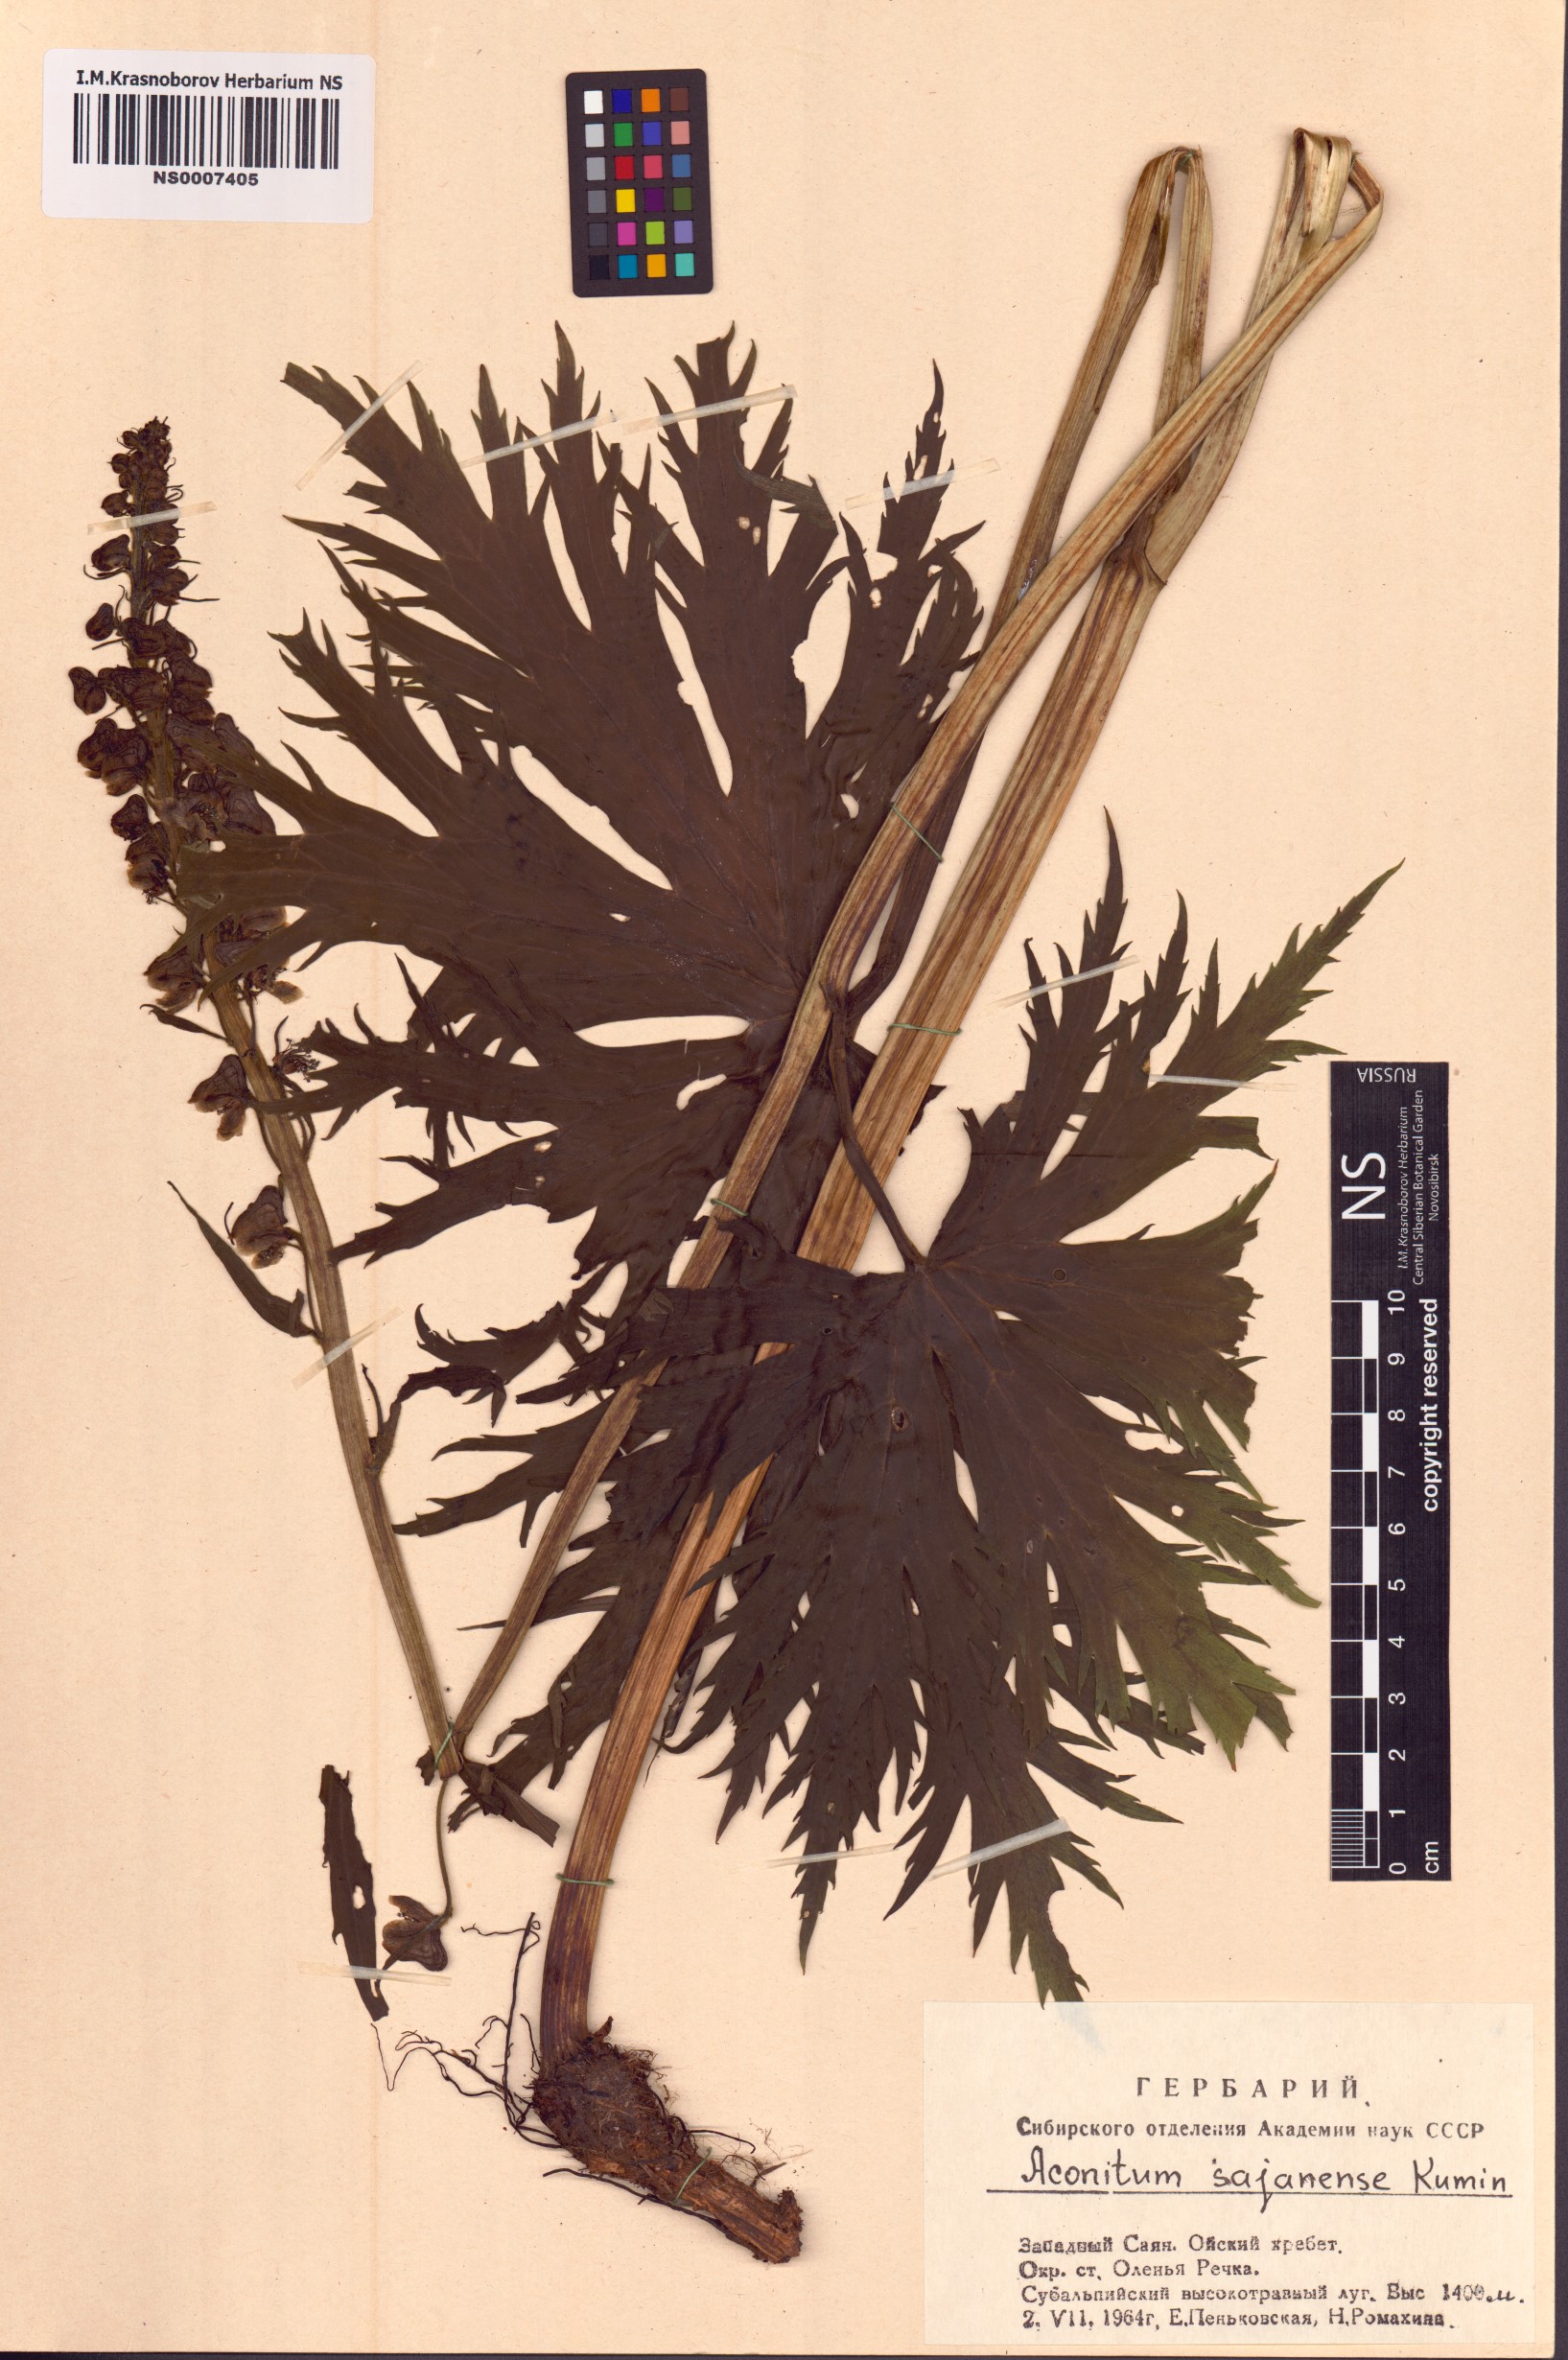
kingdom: Plantae
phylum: Tracheophyta
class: Magnoliopsida
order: Ranunculales
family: Ranunculaceae
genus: Aconitum
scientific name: Aconitum sajanense
